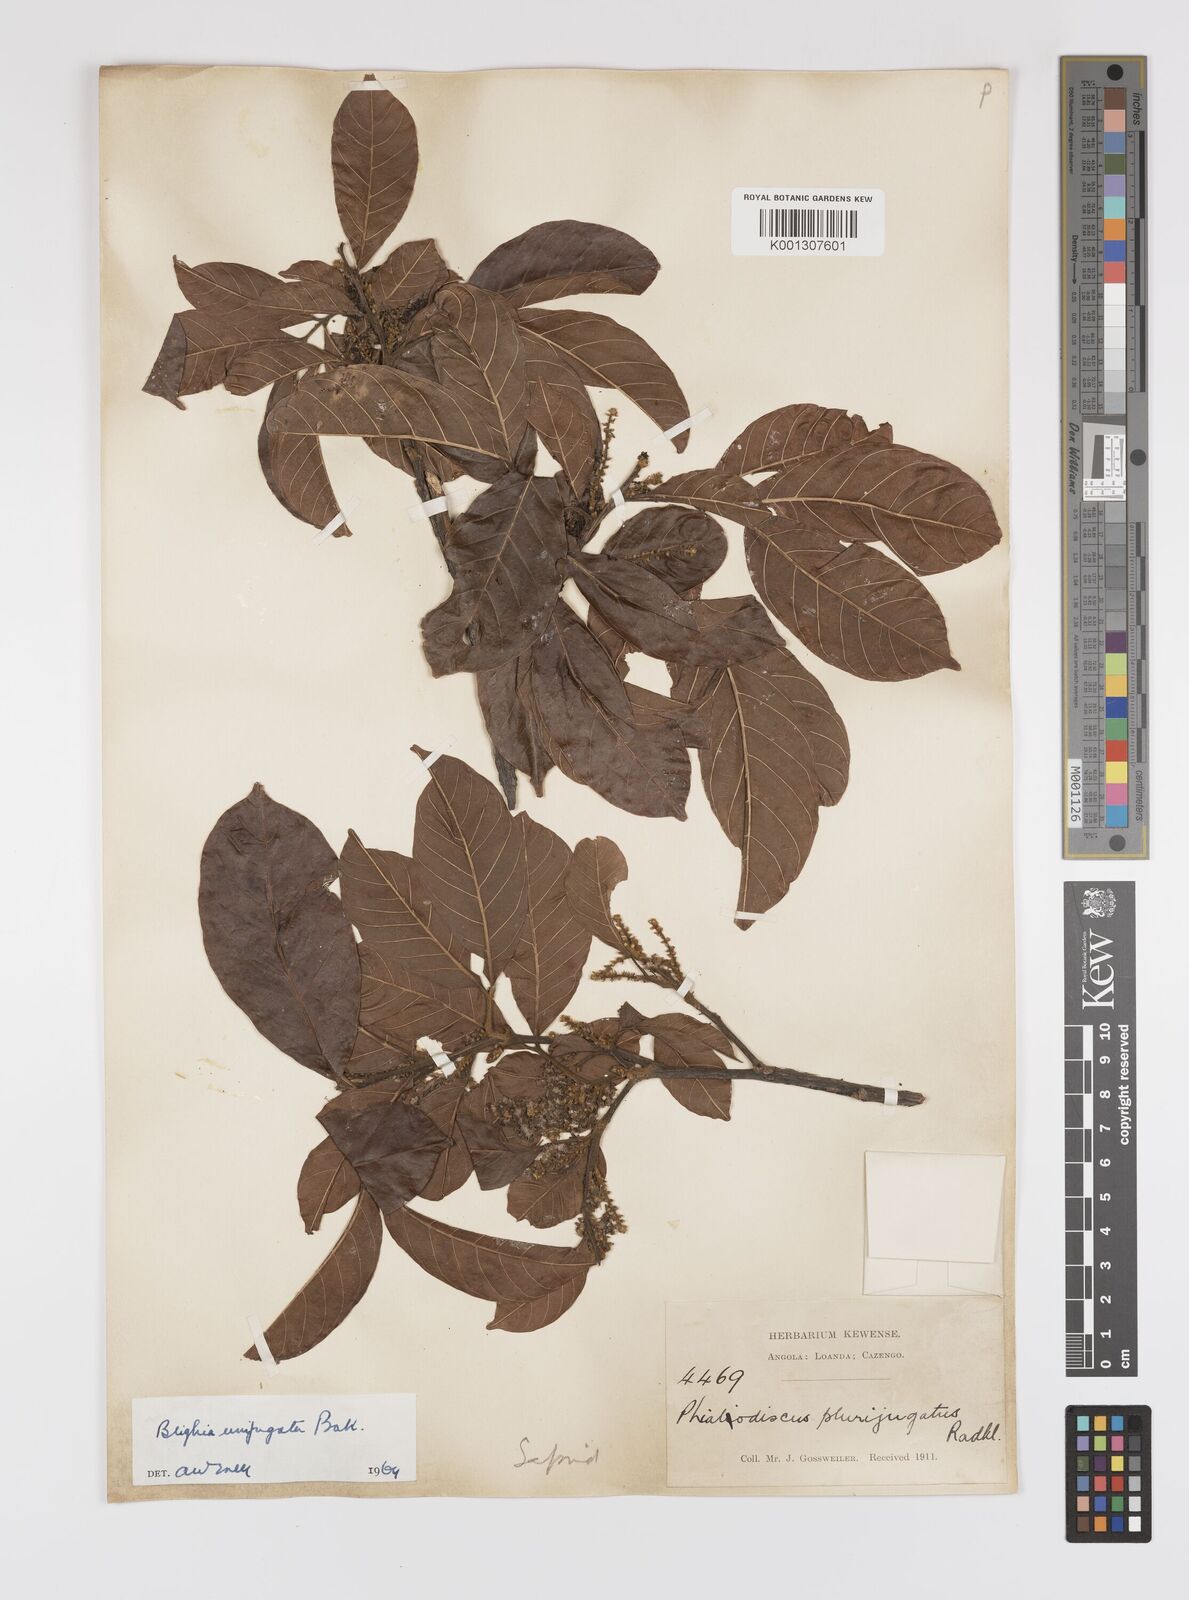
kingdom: Plantae
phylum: Tracheophyta
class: Magnoliopsida
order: Sapindales
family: Sapindaceae
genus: Blighia
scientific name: Blighia unijugata
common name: Triangle tops
